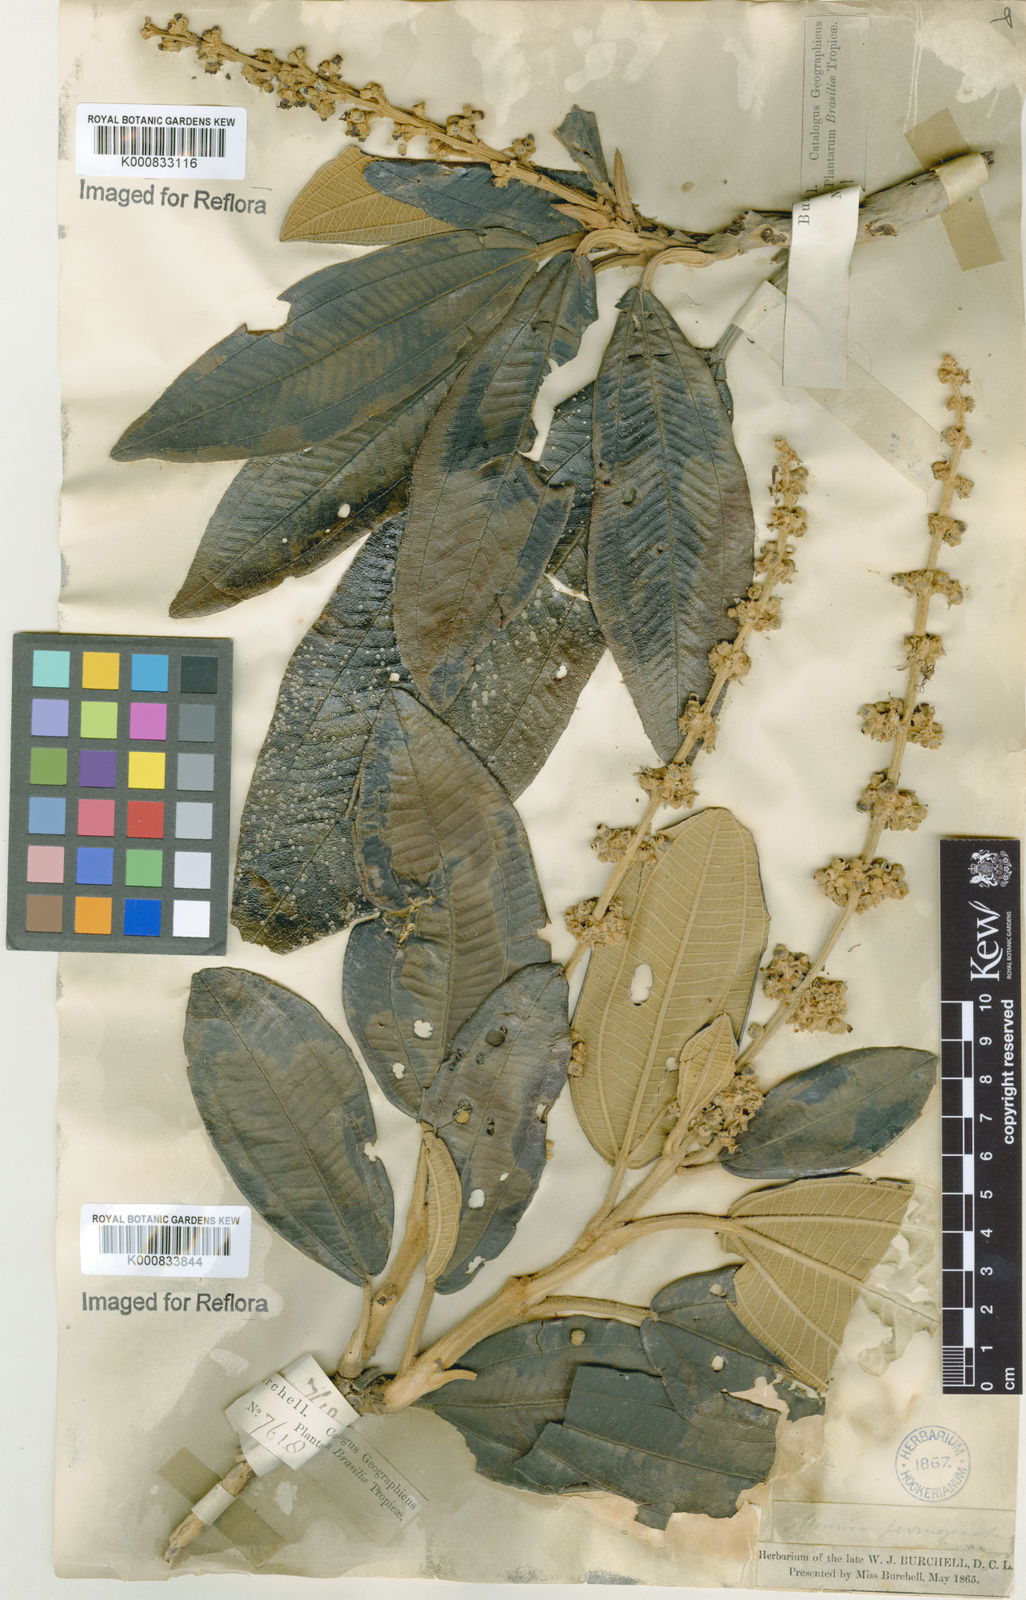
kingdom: Plantae
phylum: Tracheophyta
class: Magnoliopsida
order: Myrtales
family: Melastomataceae
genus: Miconia
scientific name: Miconia ferruginata
